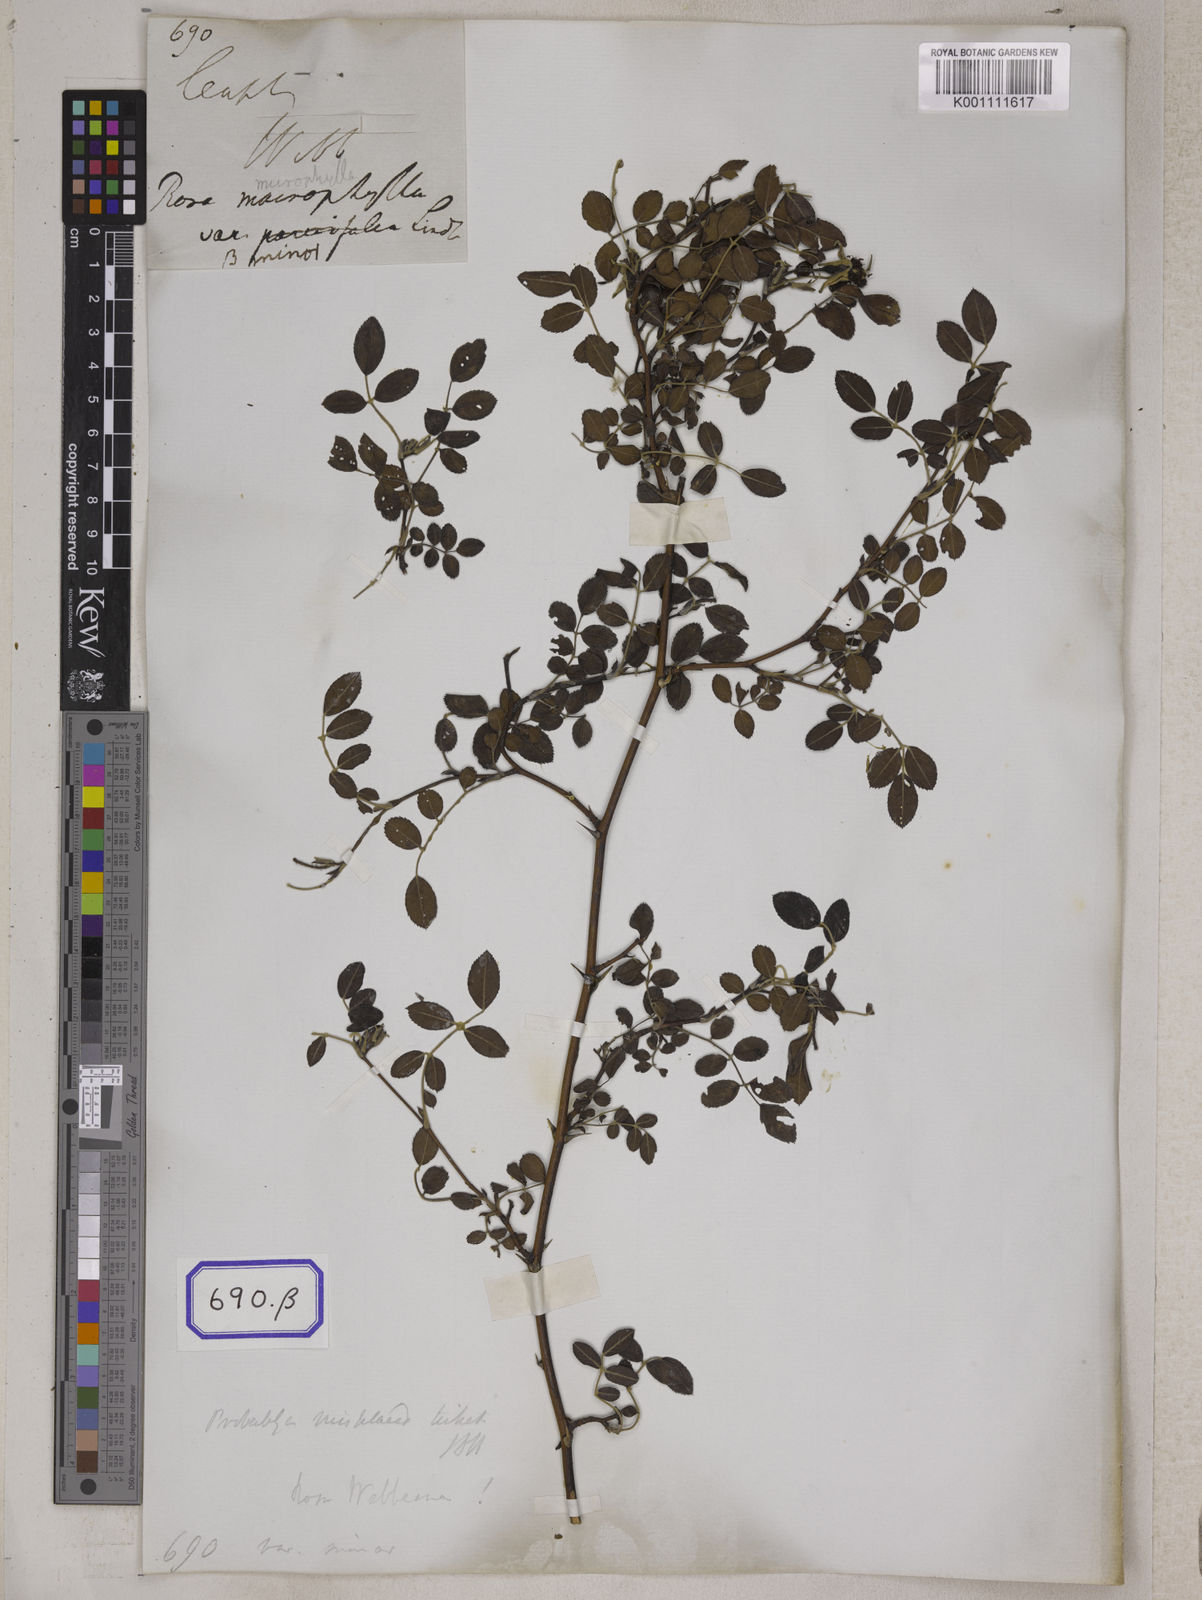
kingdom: Plantae
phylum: Tracheophyta
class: Magnoliopsida
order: Rosales
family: Rosaceae
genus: Rosa
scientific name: Rosa
